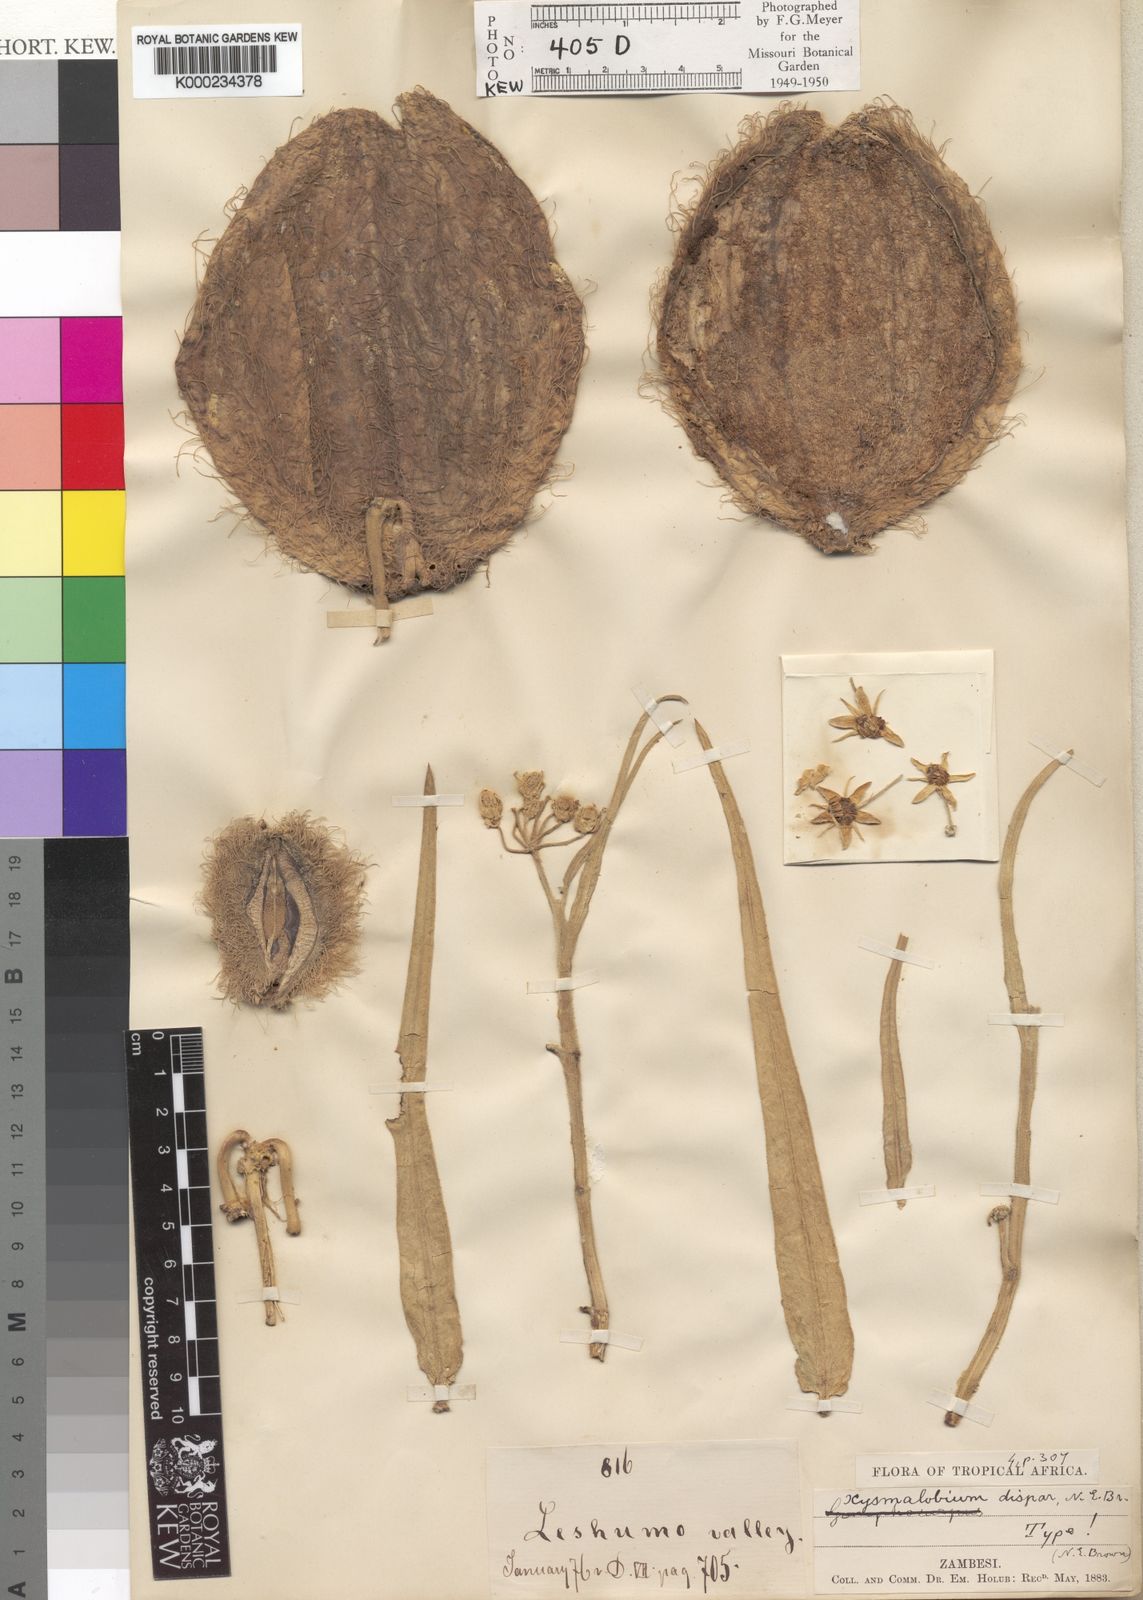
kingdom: Plantae
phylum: Tracheophyta
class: Magnoliopsida
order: Gentianales
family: Apocynaceae
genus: Xysmalobium
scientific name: Xysmalobium undulatum
